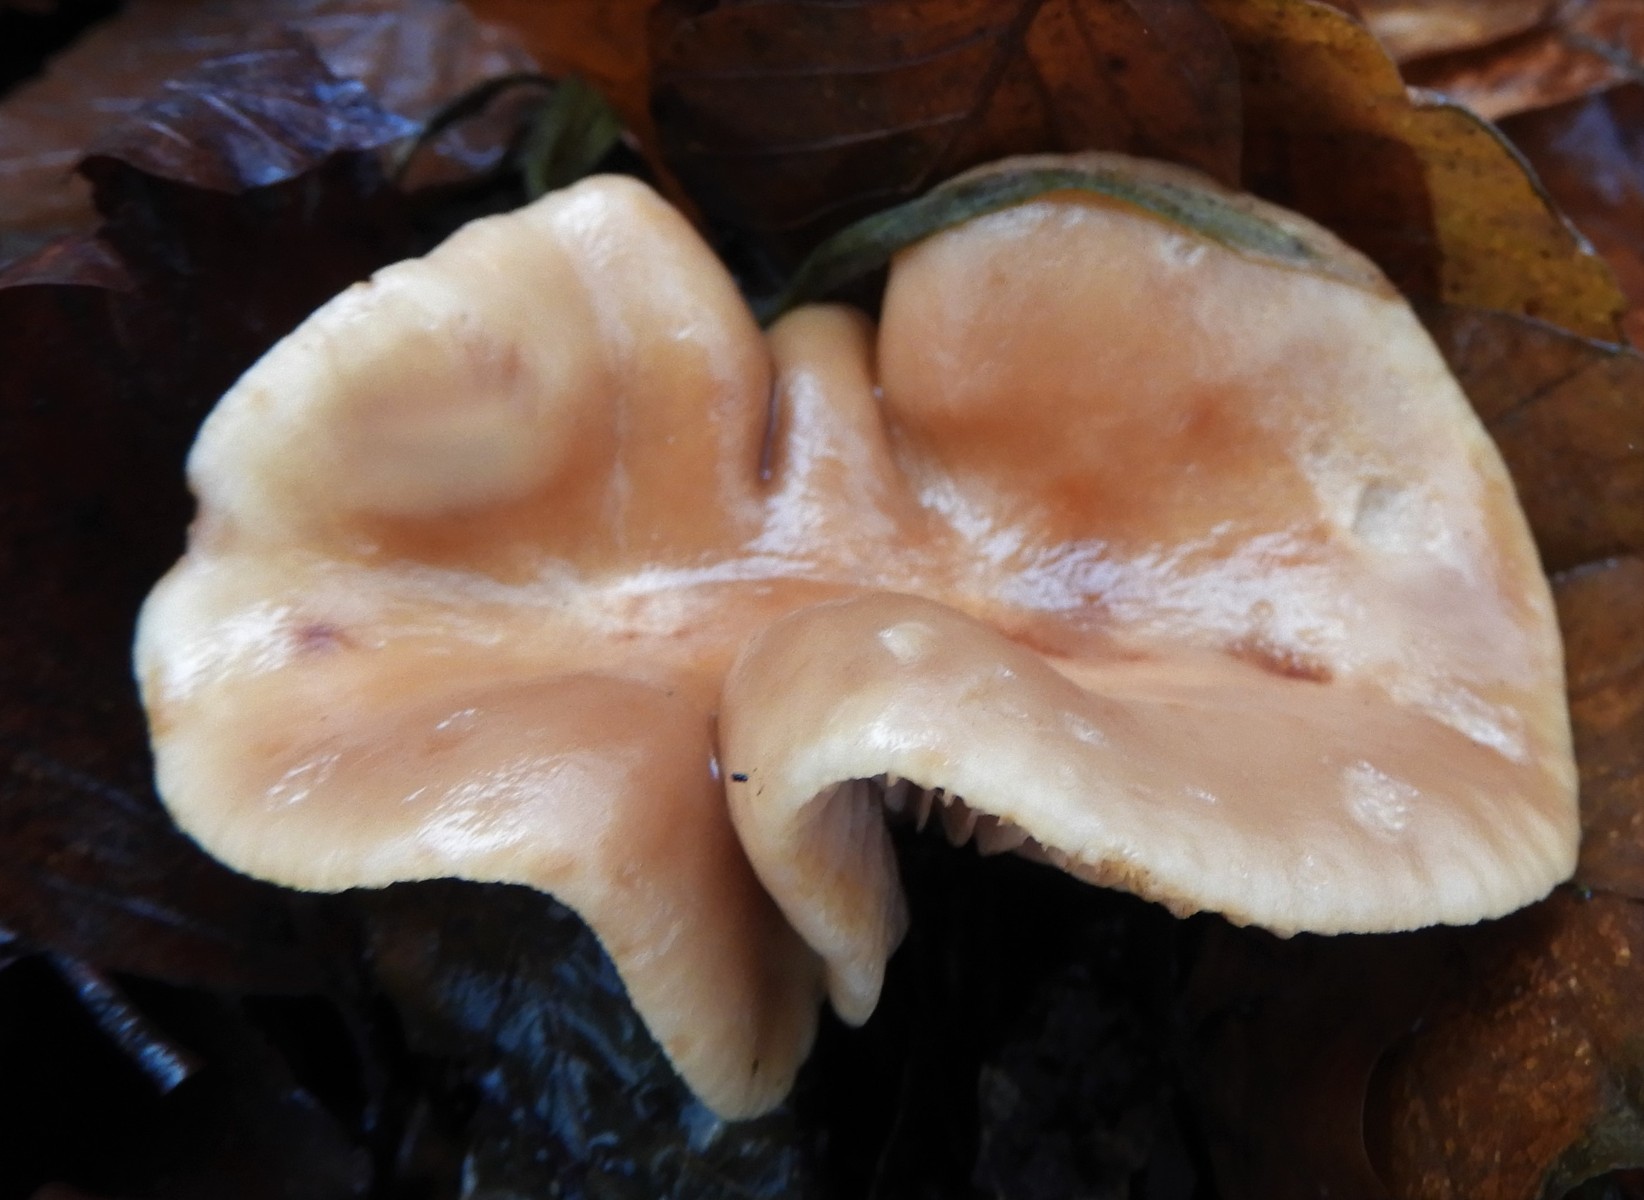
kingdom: Fungi
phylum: Basidiomycota
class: Agaricomycetes
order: Russulales
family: Russulaceae
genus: Lactarius
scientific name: Lactarius subdulcis
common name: sødlig mælkehat
